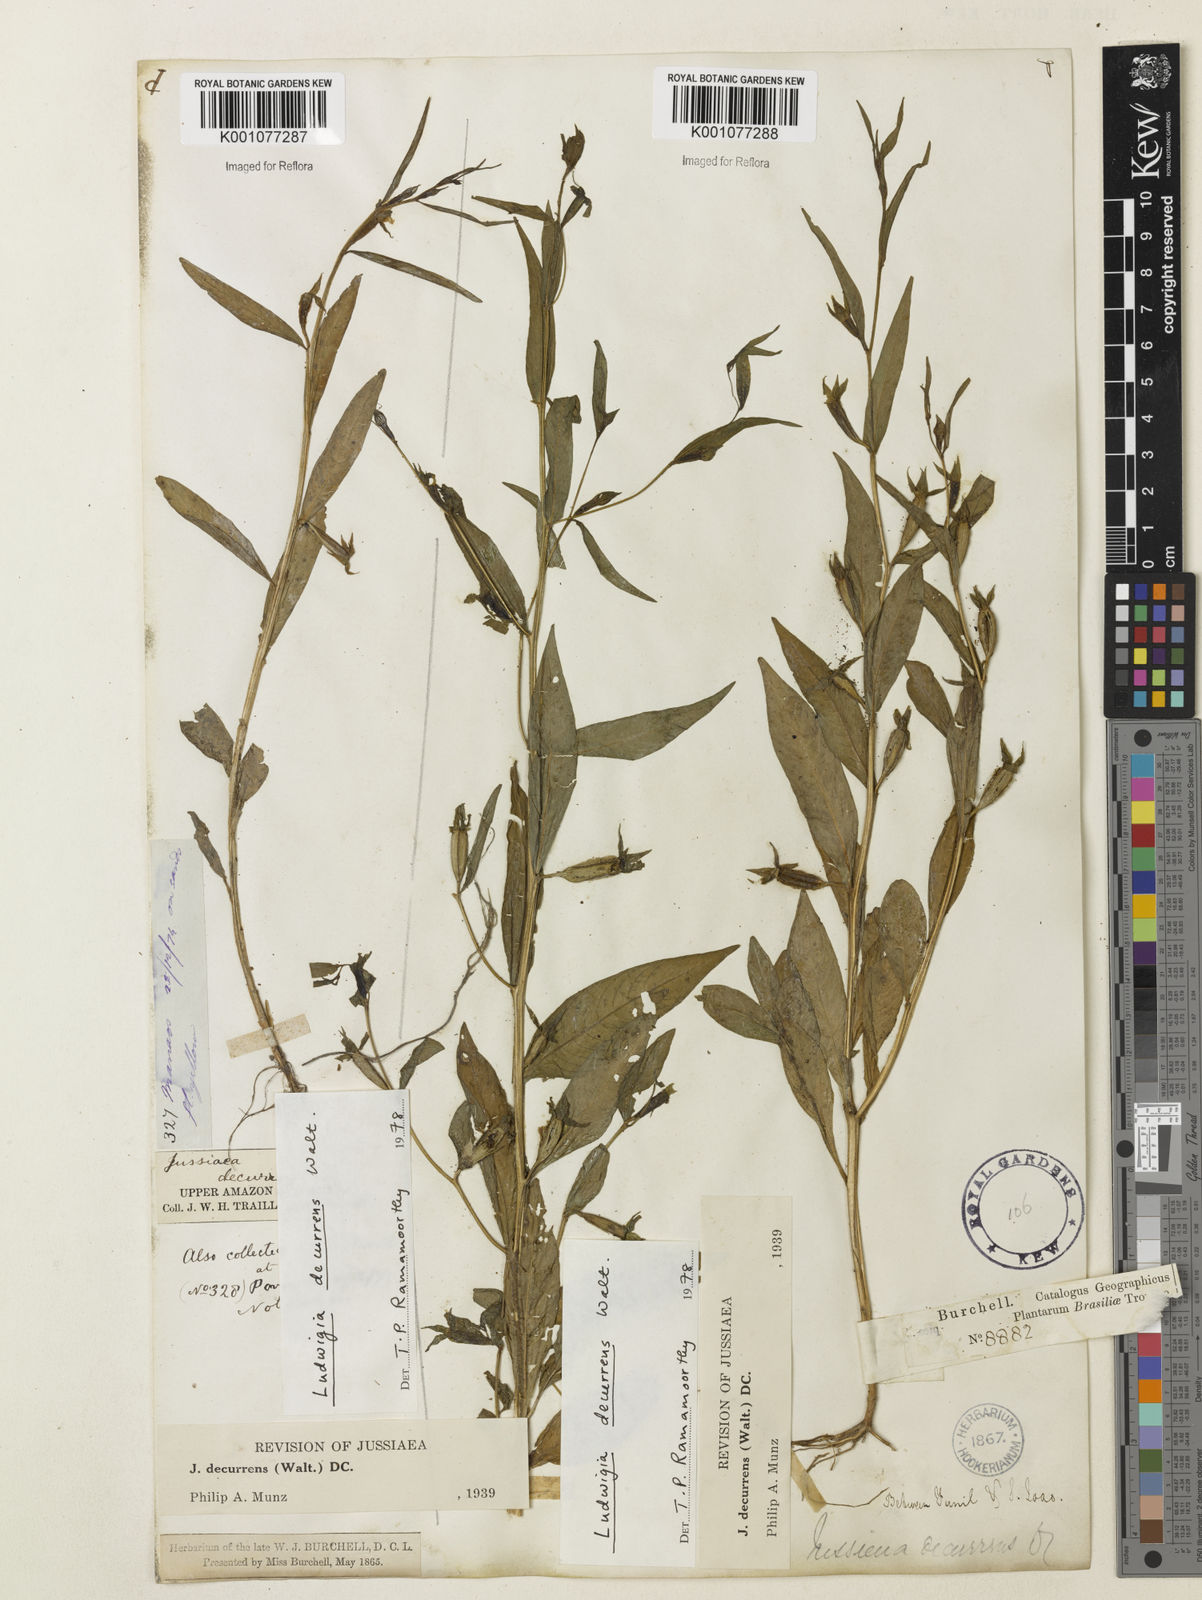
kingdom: Plantae
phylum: Tracheophyta
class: Magnoliopsida
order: Myrtales
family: Onagraceae
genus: Ludwigia
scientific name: Ludwigia decurrens
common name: Winged water-primrose
